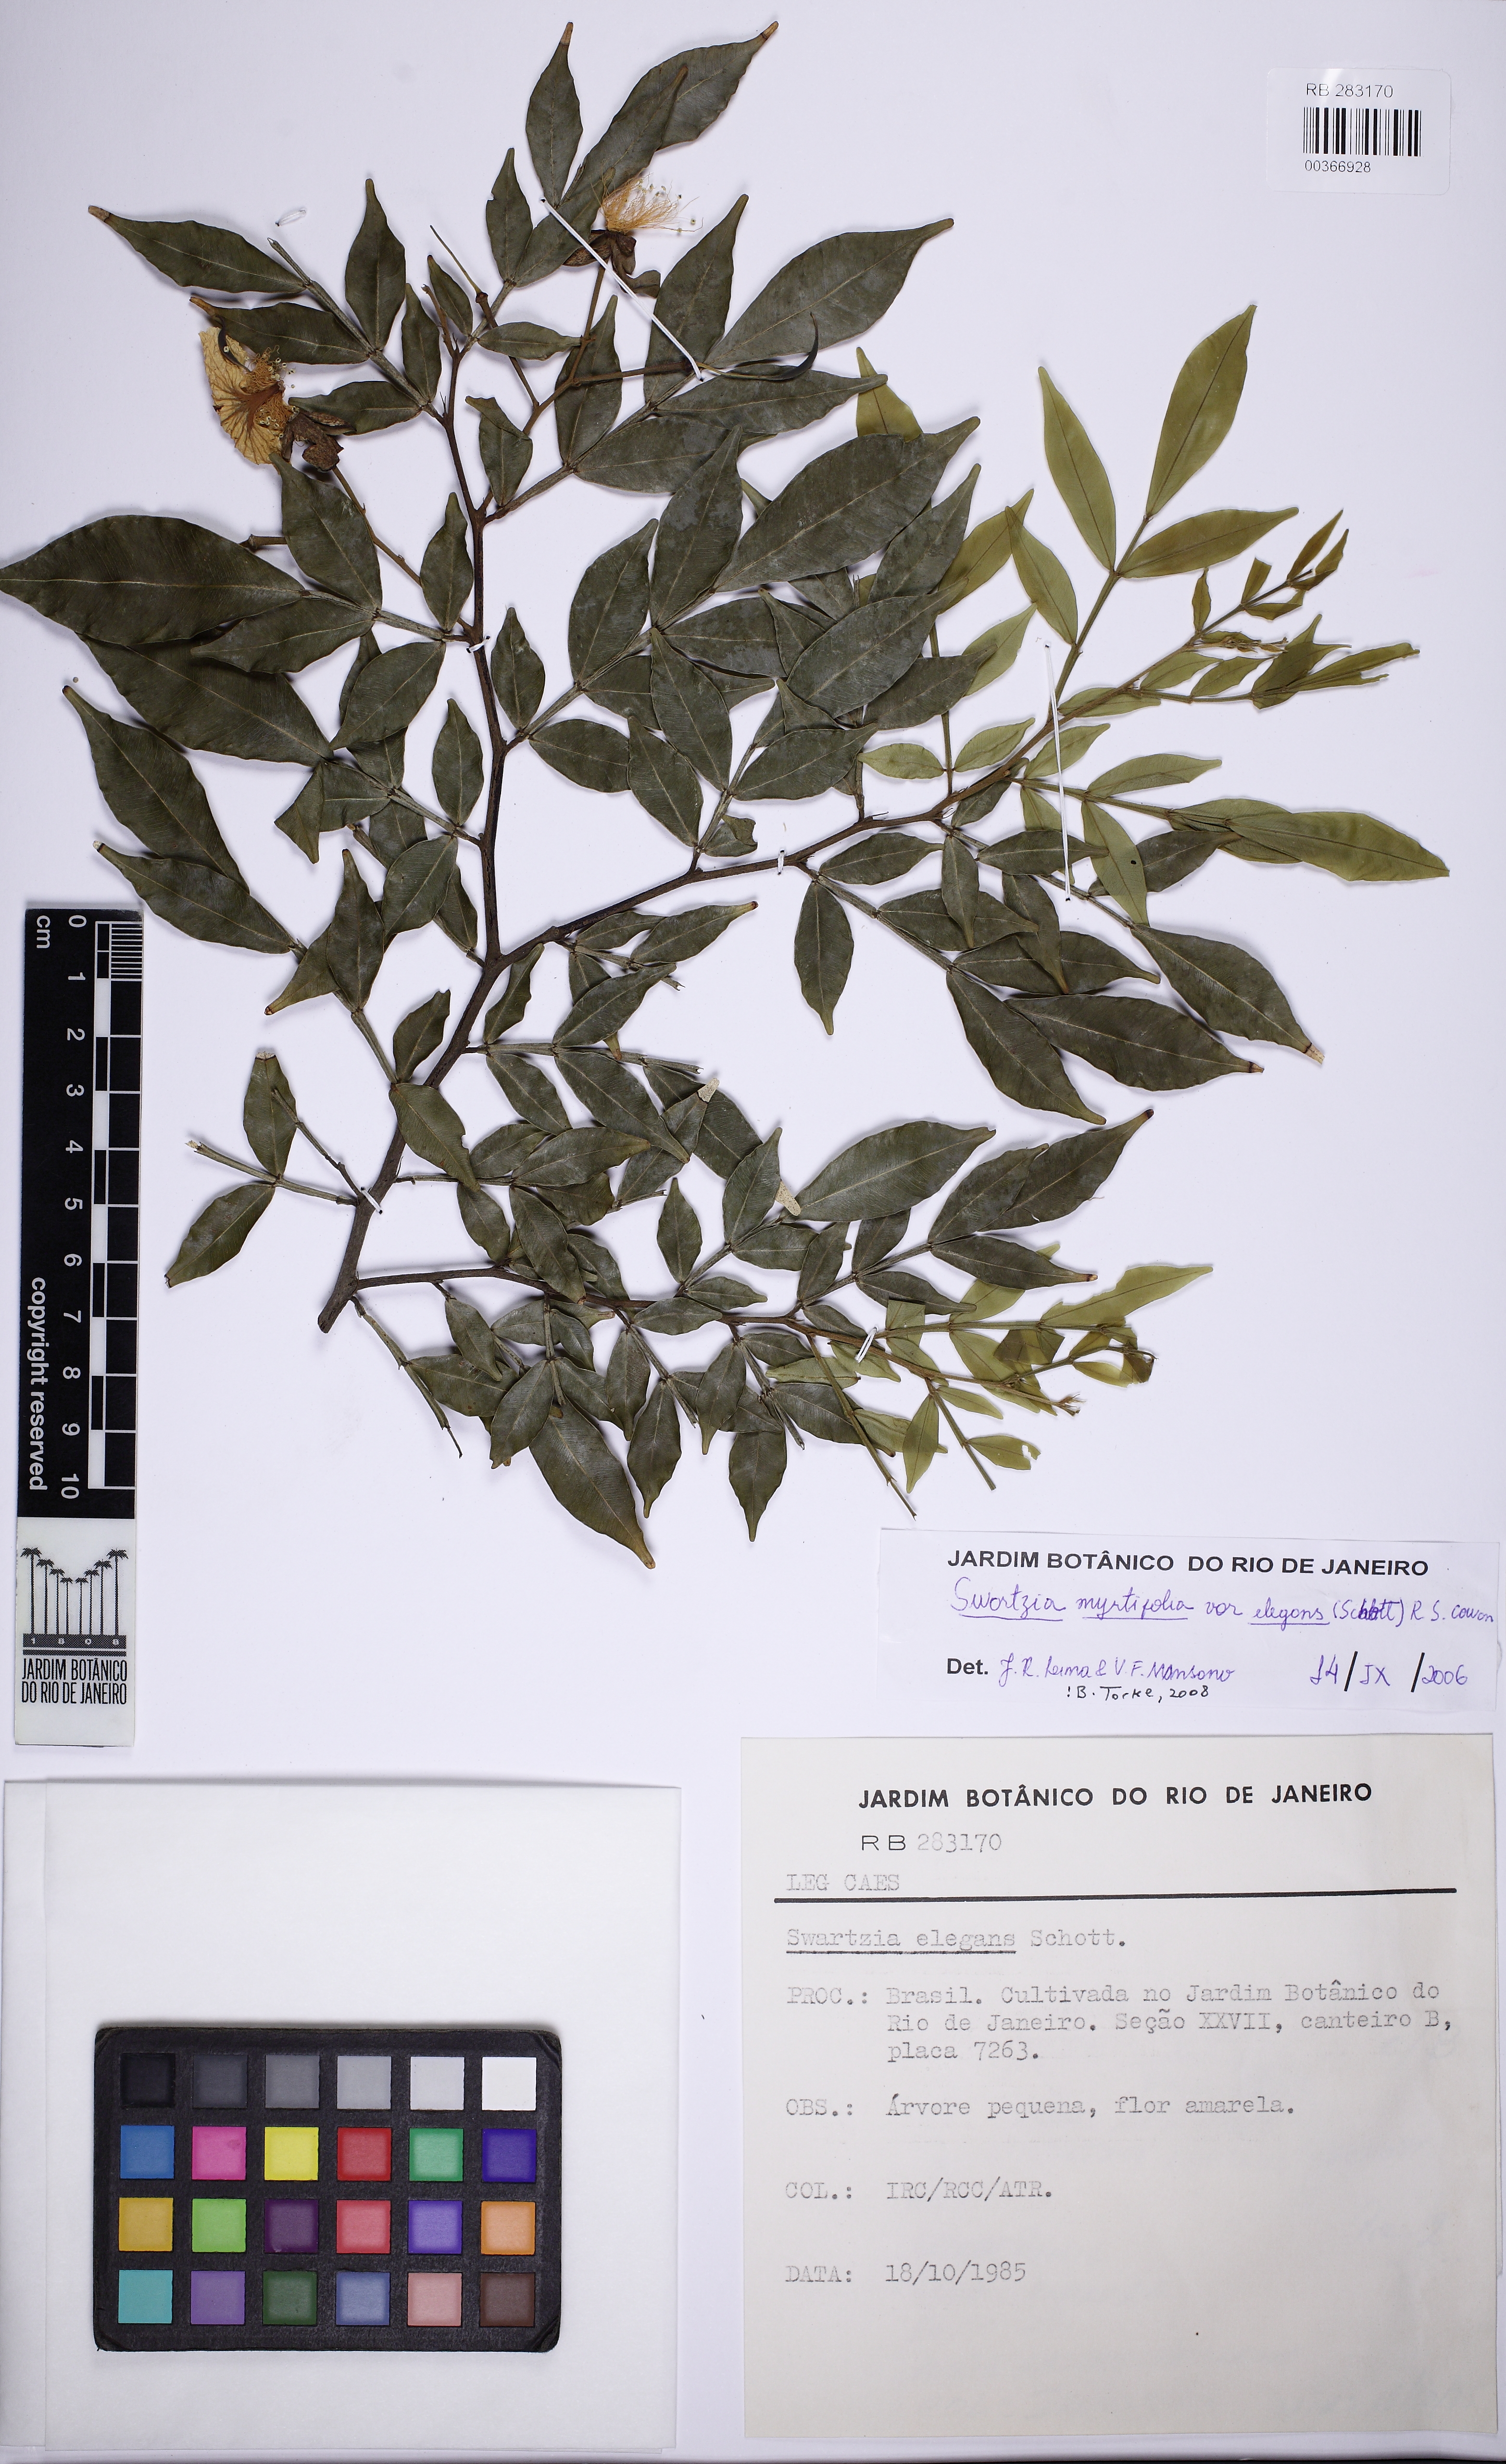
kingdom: Plantae
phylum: Tracheophyta
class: Magnoliopsida
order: Fabales
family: Fabaceae
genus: Swartzia
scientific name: Swartzia myrtifolia
